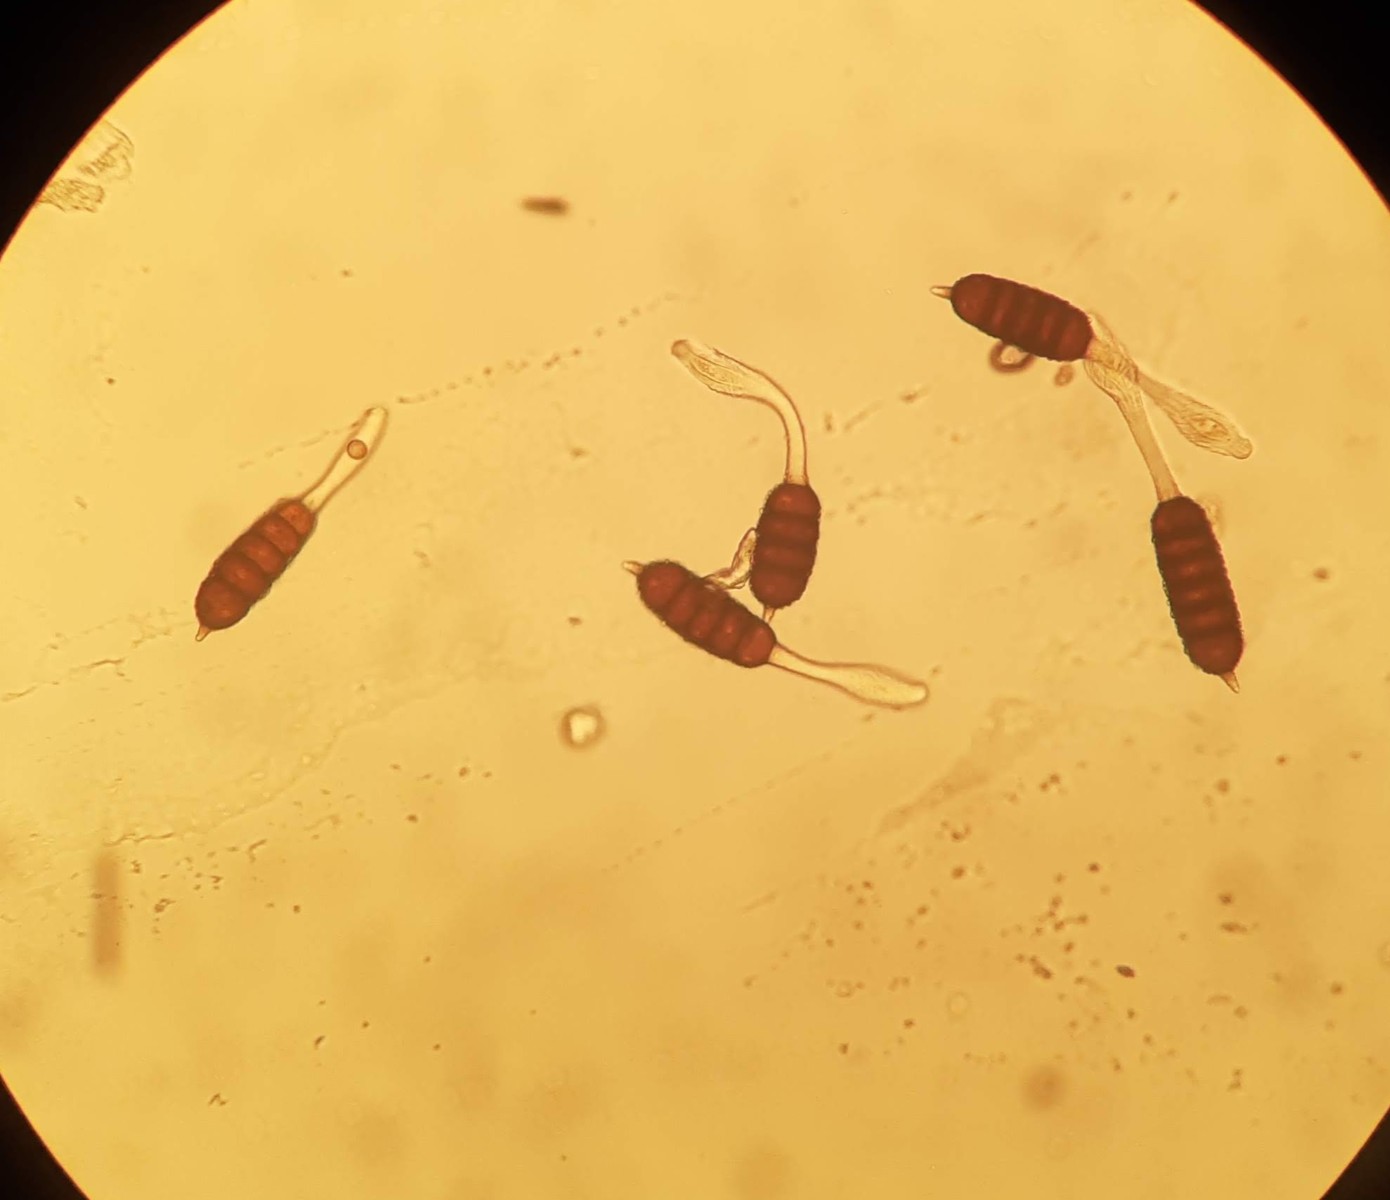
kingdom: Fungi
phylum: Basidiomycota
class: Pucciniomycetes
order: Pucciniales
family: Phragmidiaceae
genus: Phragmidium
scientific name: Phragmidium bulbosum
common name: brombær-flercellerust
